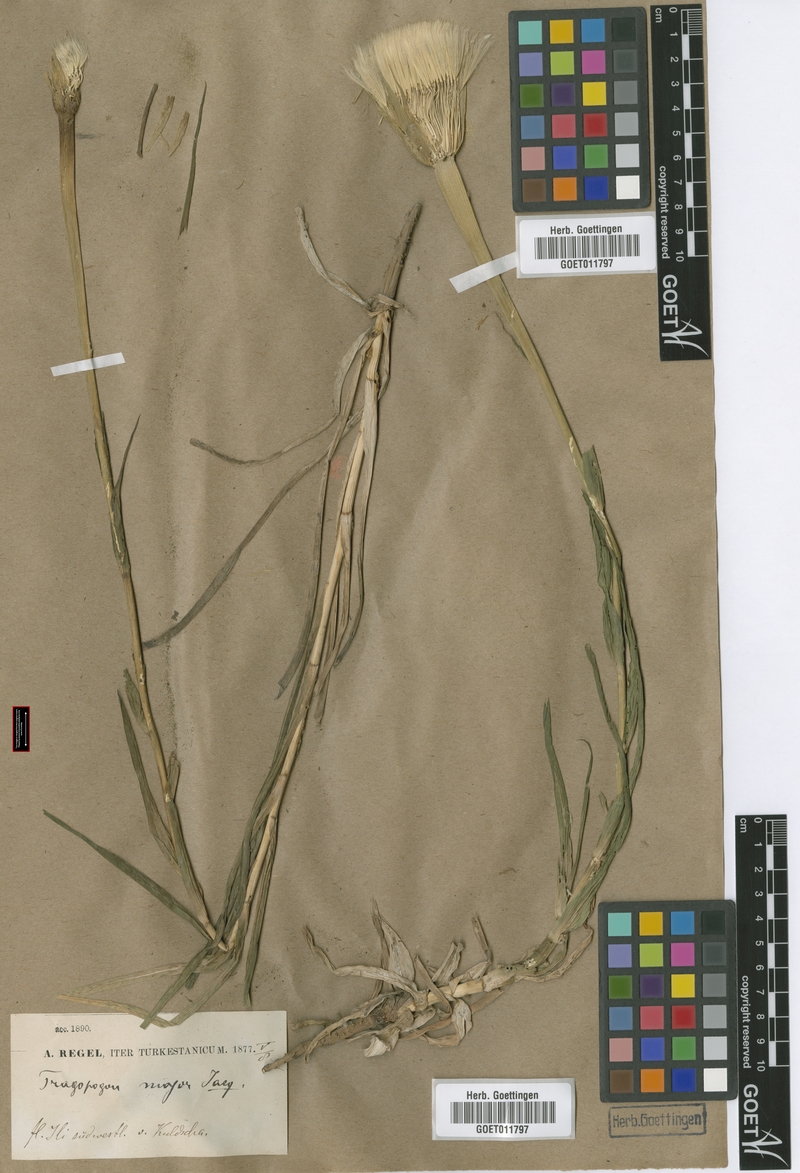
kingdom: Plantae
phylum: Tracheophyta
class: Magnoliopsida
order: Asterales
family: Asteraceae
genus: Tragopogon
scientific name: Tragopogon dubius
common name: Yellow salsify
